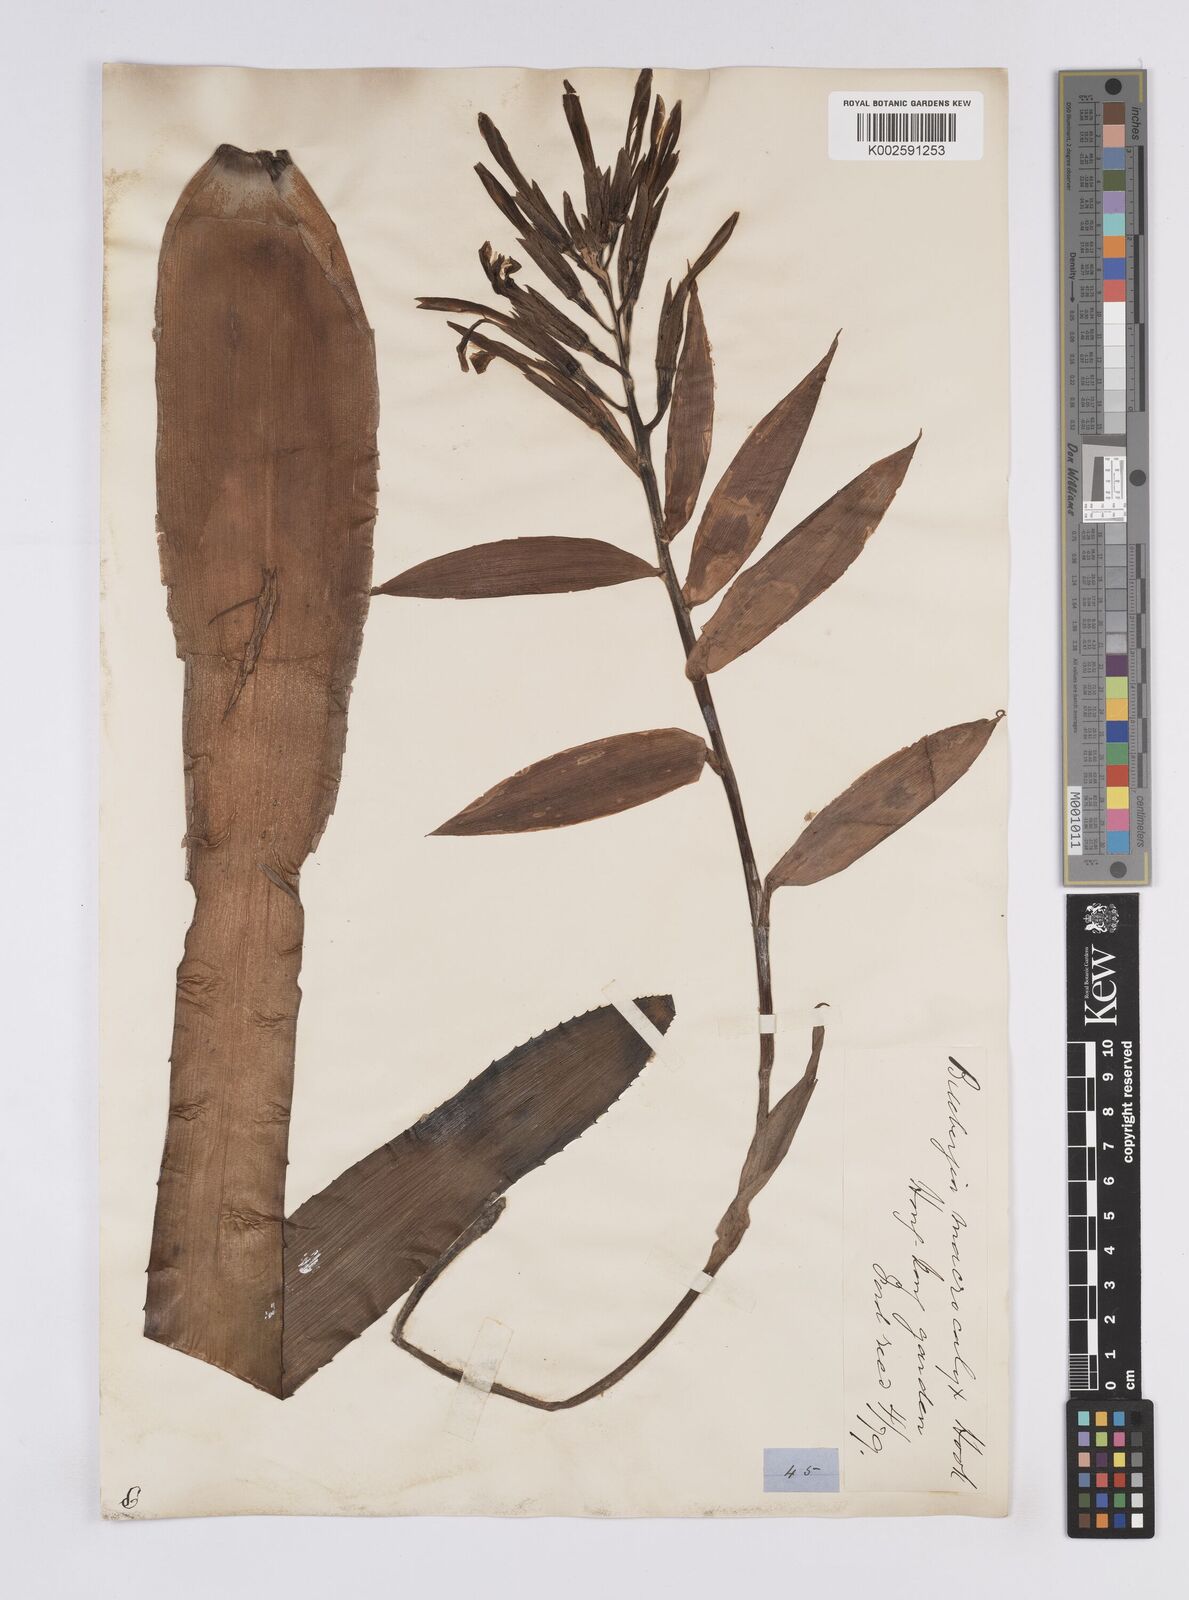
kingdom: Plantae
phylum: Tracheophyta
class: Liliopsida
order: Poales
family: Bromeliaceae
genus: Billbergia
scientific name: Billbergia macrocalyx
